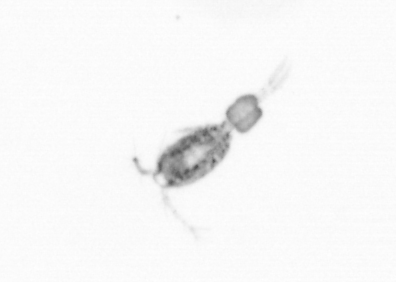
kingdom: Animalia
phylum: Arthropoda
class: Copepoda
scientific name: Copepoda
